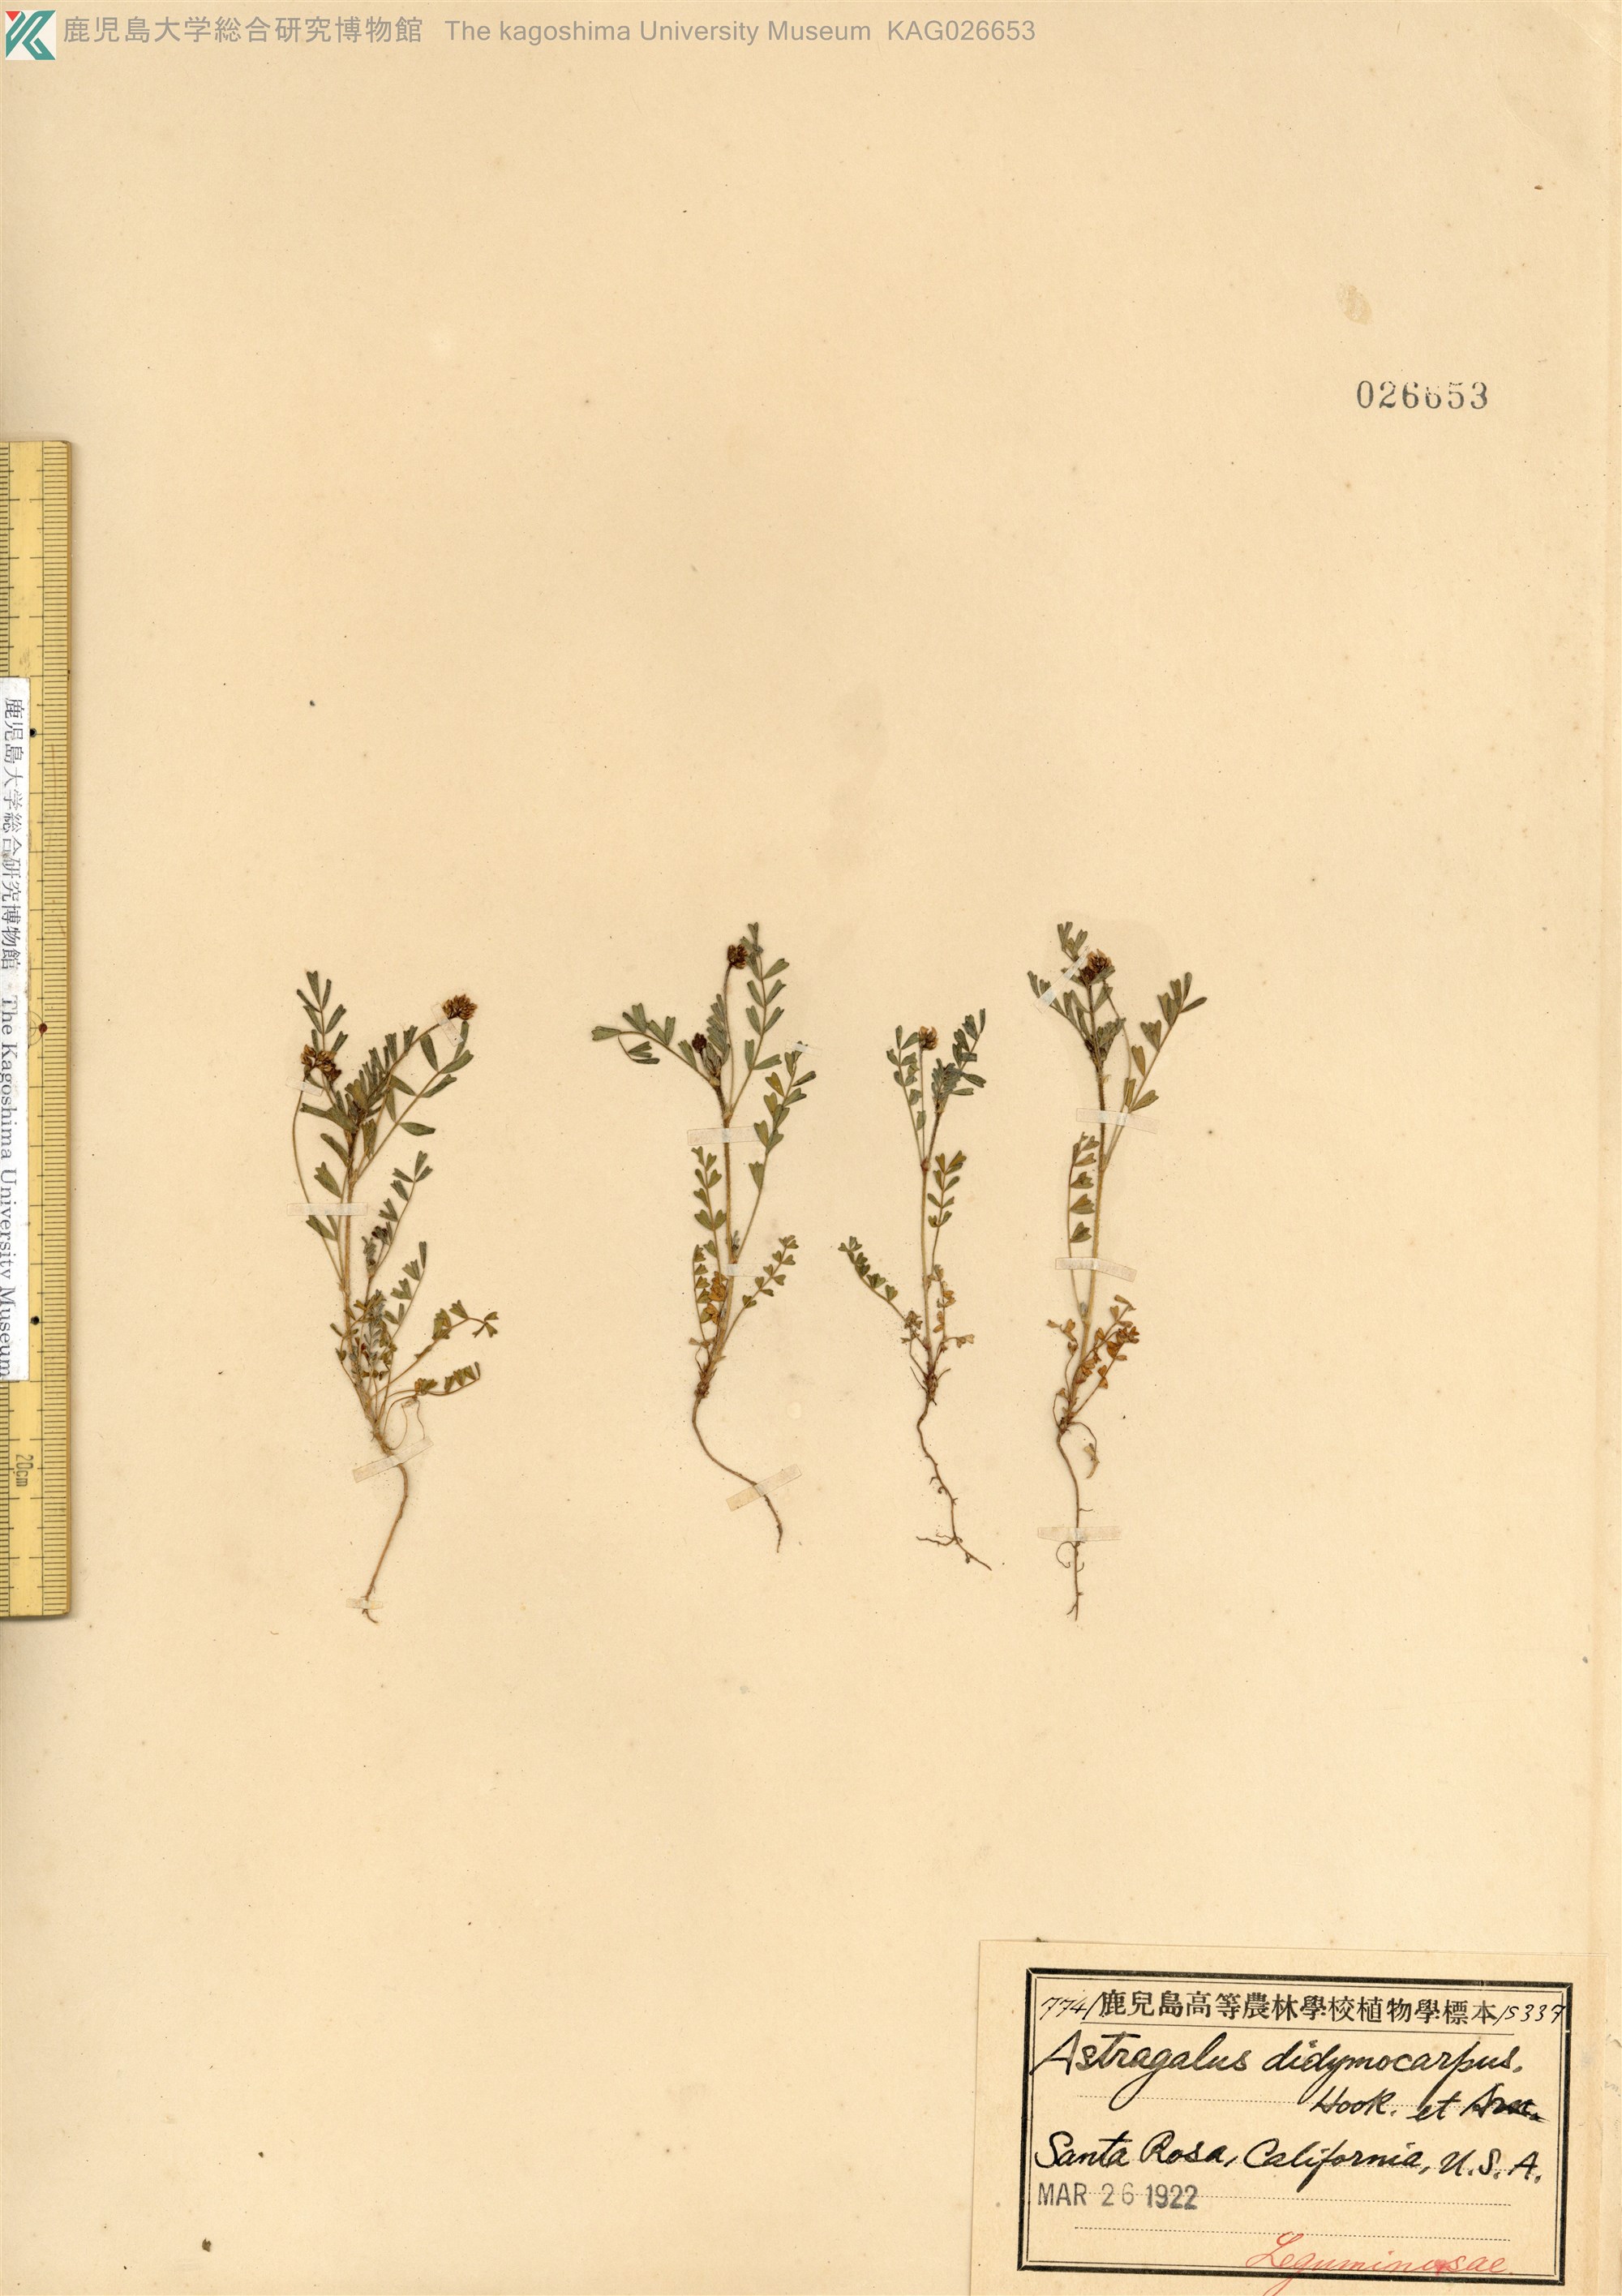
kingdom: Plantae
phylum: Tracheophyta
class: Magnoliopsida
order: Fabales
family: Fabaceae
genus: Astragalus
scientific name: Astragalus didymocarpus
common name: Dwarf white milkvetch
